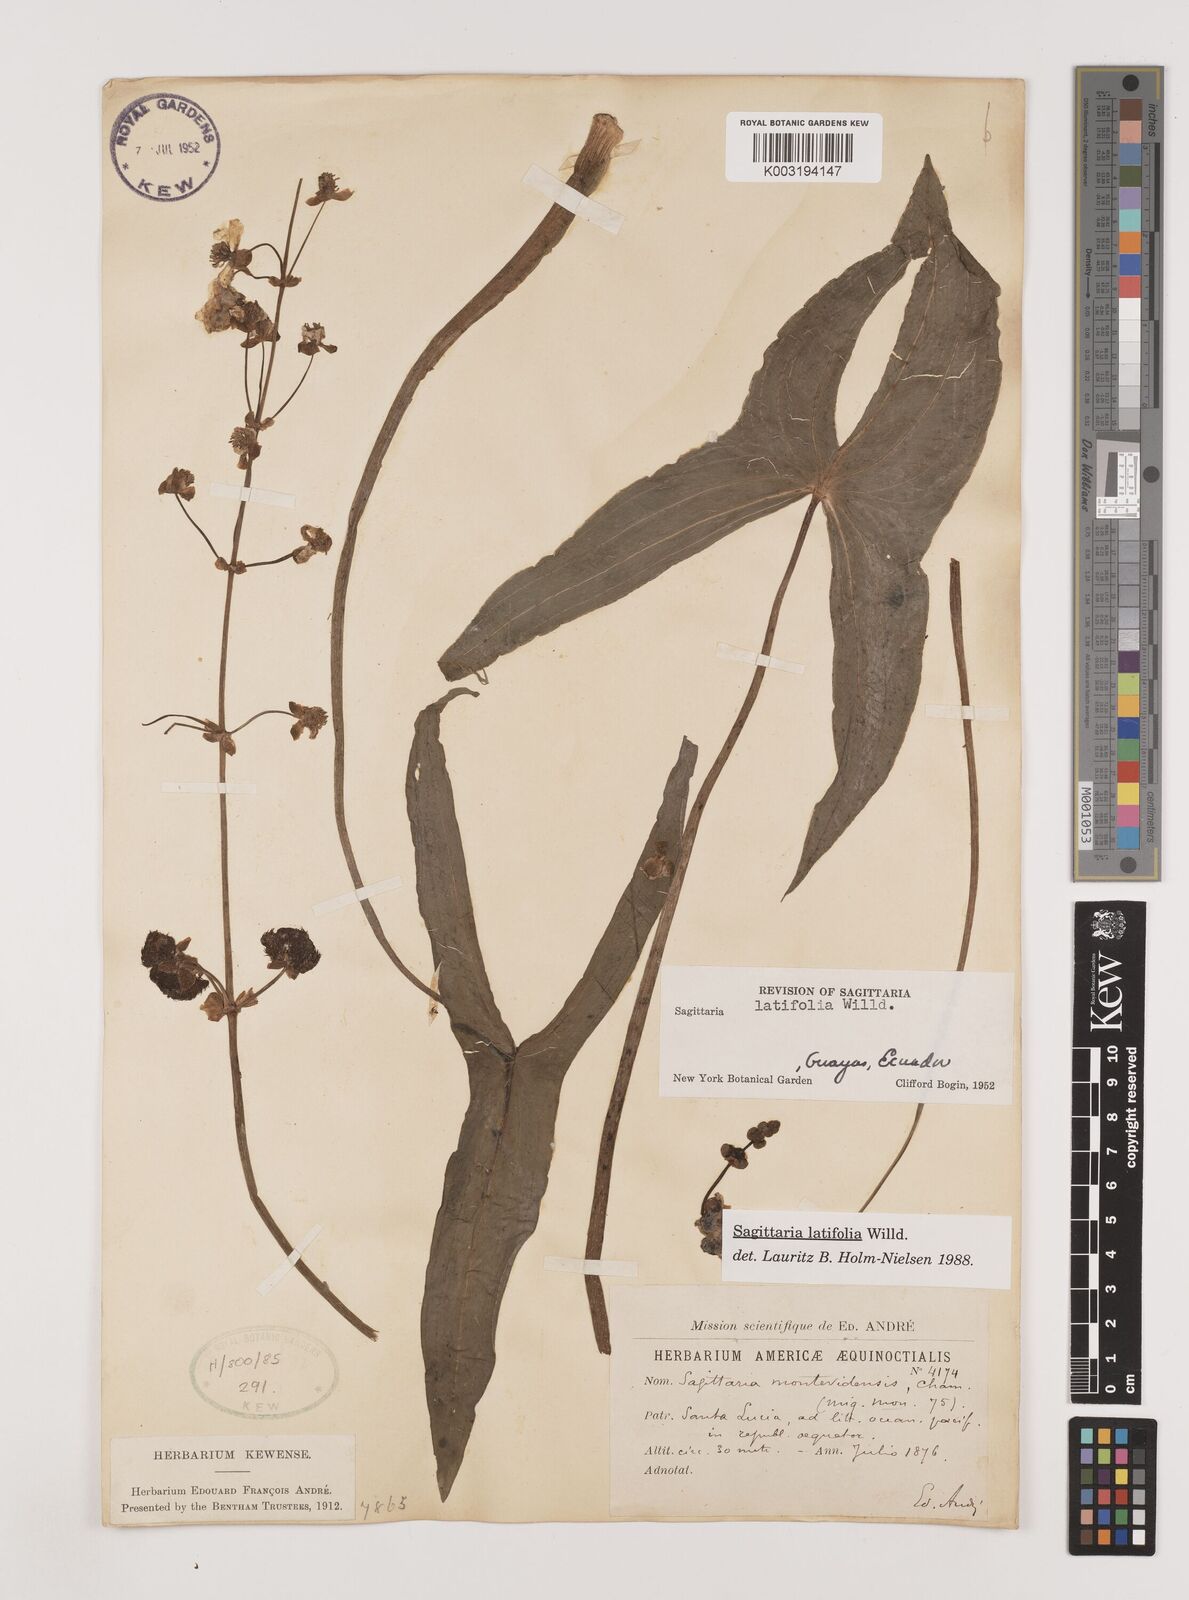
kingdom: Plantae
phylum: Tracheophyta
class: Liliopsida
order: Alismatales
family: Alismataceae
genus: Sagittaria
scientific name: Sagittaria latifolia
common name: Duck-potato
